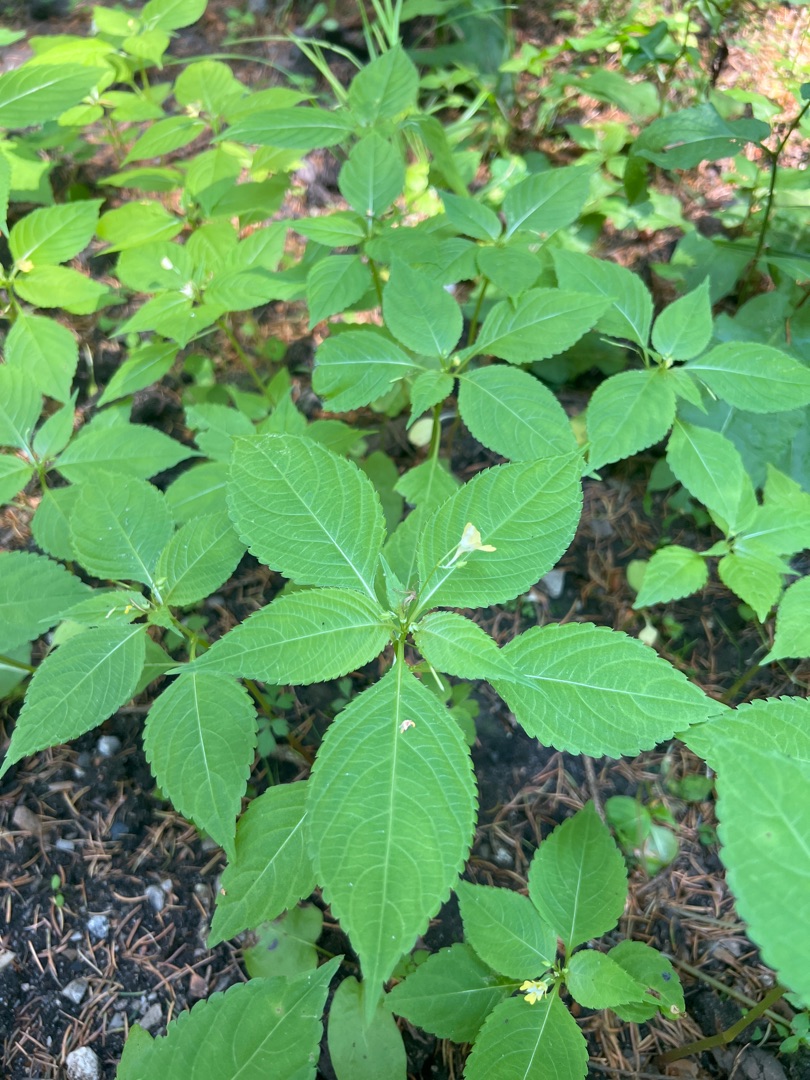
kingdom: Plantae
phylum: Tracheophyta
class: Magnoliopsida
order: Ericales
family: Balsaminaceae
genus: Impatiens
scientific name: Impatiens parviflora
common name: Småblomstret balsamin
